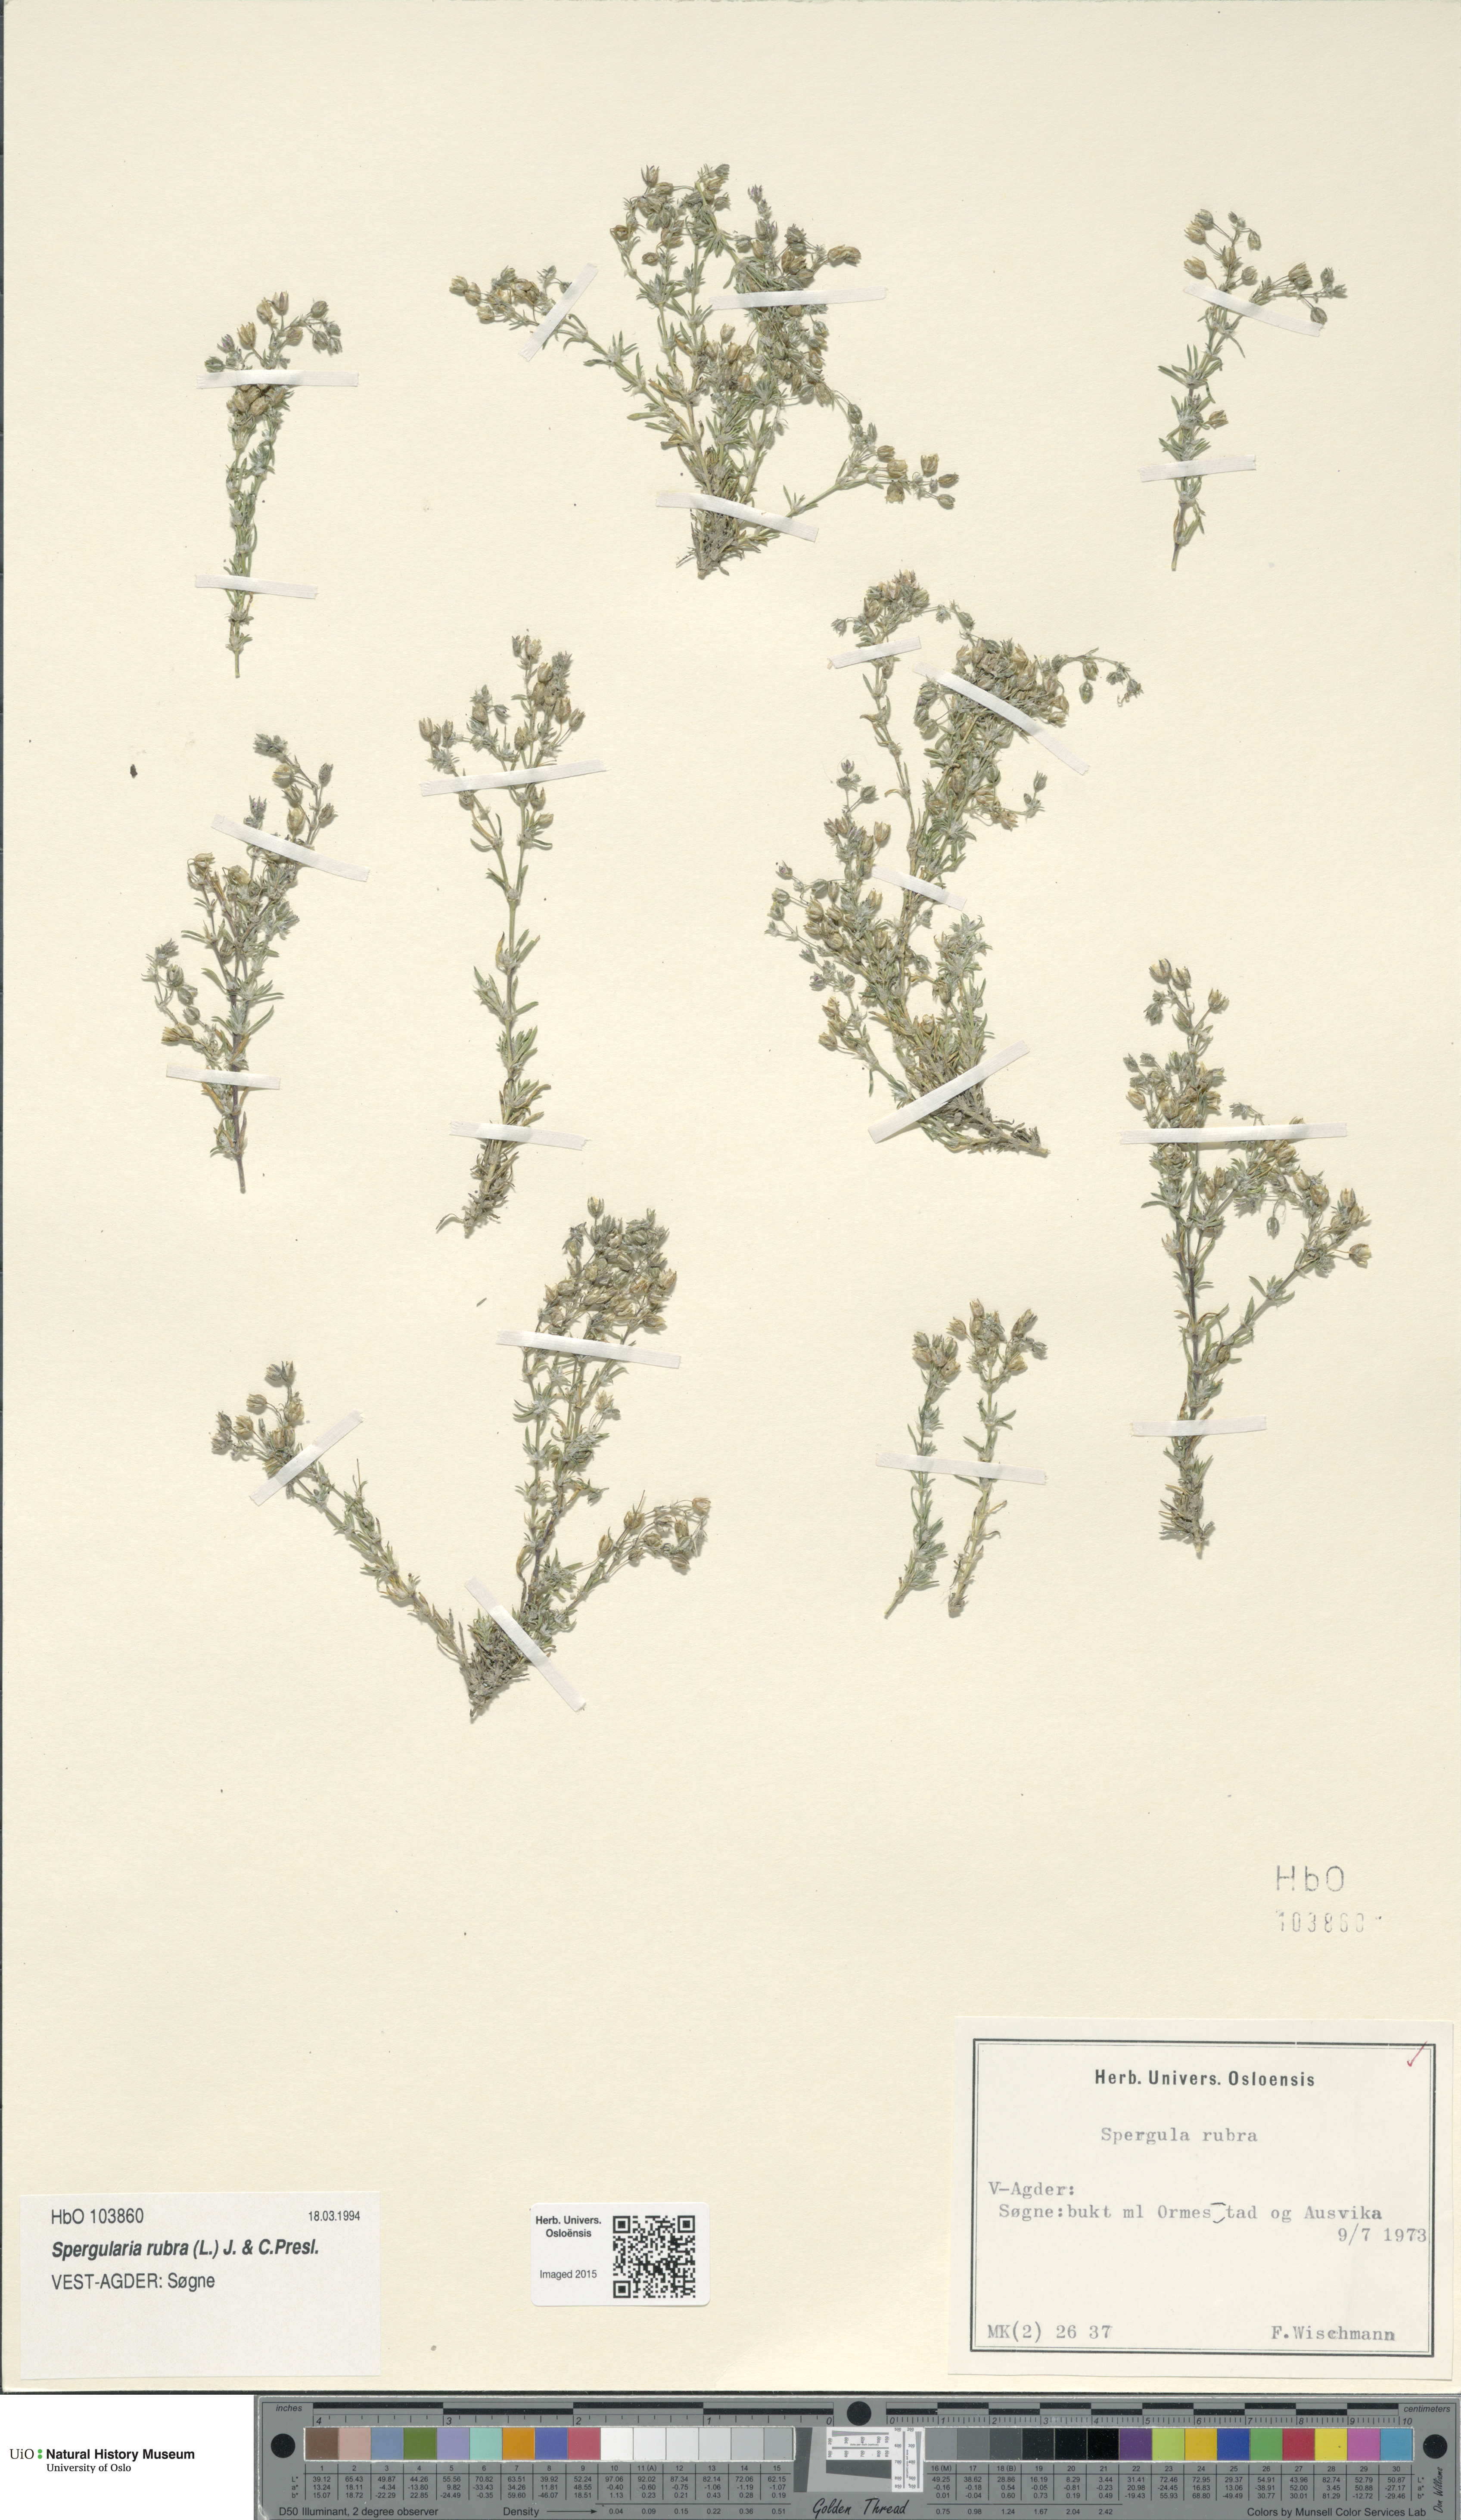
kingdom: Plantae
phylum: Tracheophyta
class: Magnoliopsida
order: Caryophyllales
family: Caryophyllaceae
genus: Spergularia
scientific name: Spergularia rubra
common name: Red sand-spurrey
